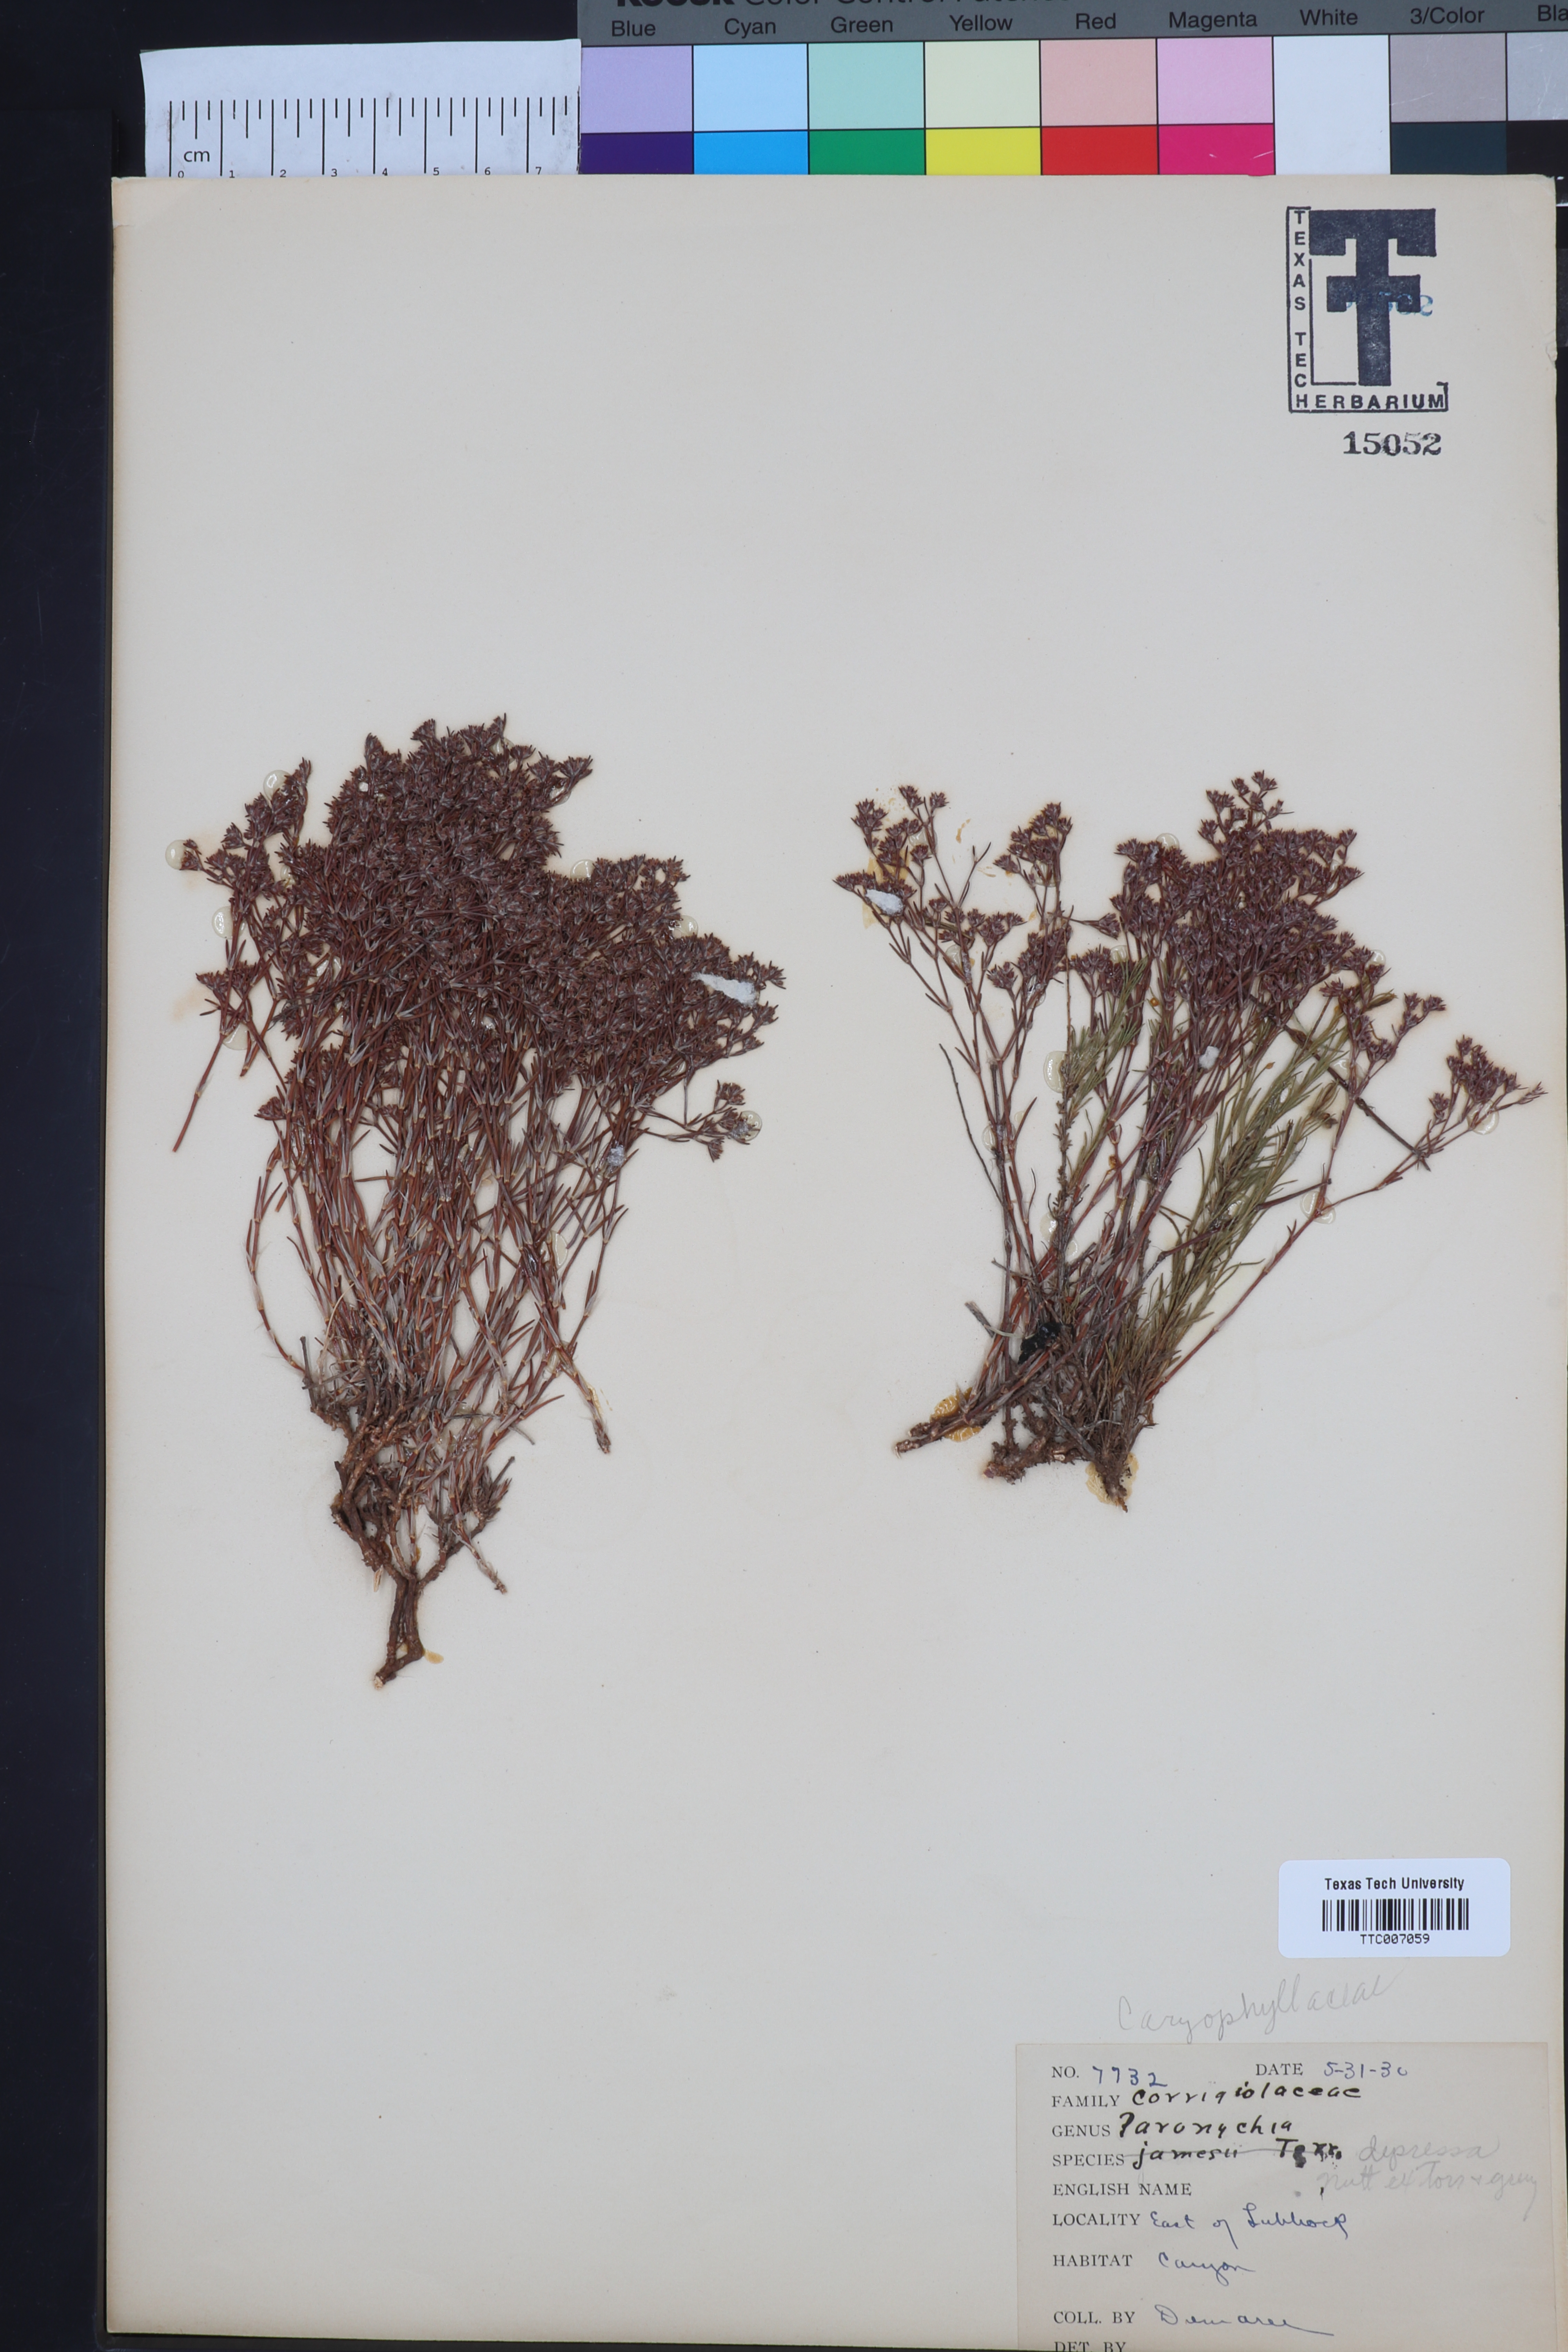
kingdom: Plantae
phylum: Tracheophyta
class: Magnoliopsida
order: Caryophyllales
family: Caryophyllaceae
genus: Paronychia
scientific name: Paronychia jamesii
